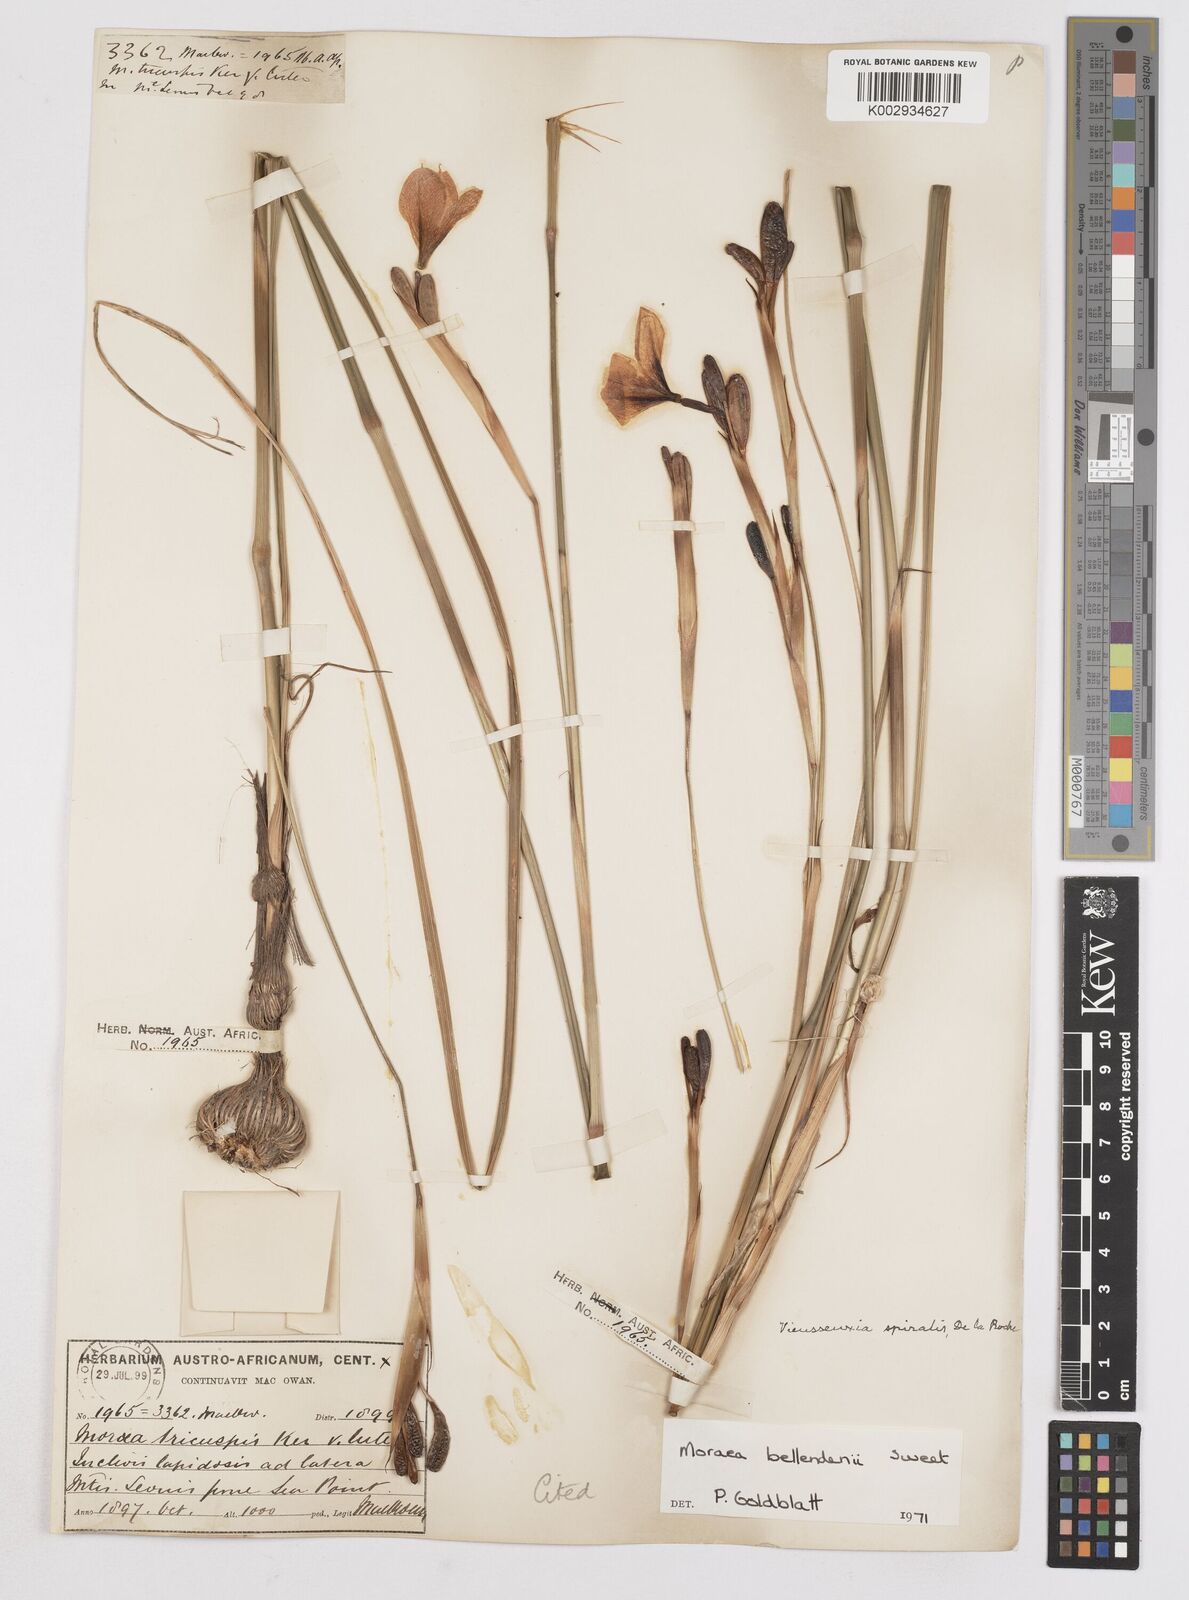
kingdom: Plantae
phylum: Tracheophyta
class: Liliopsida
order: Asparagales
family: Iridaceae
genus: Moraea
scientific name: Moraea bellendenii
